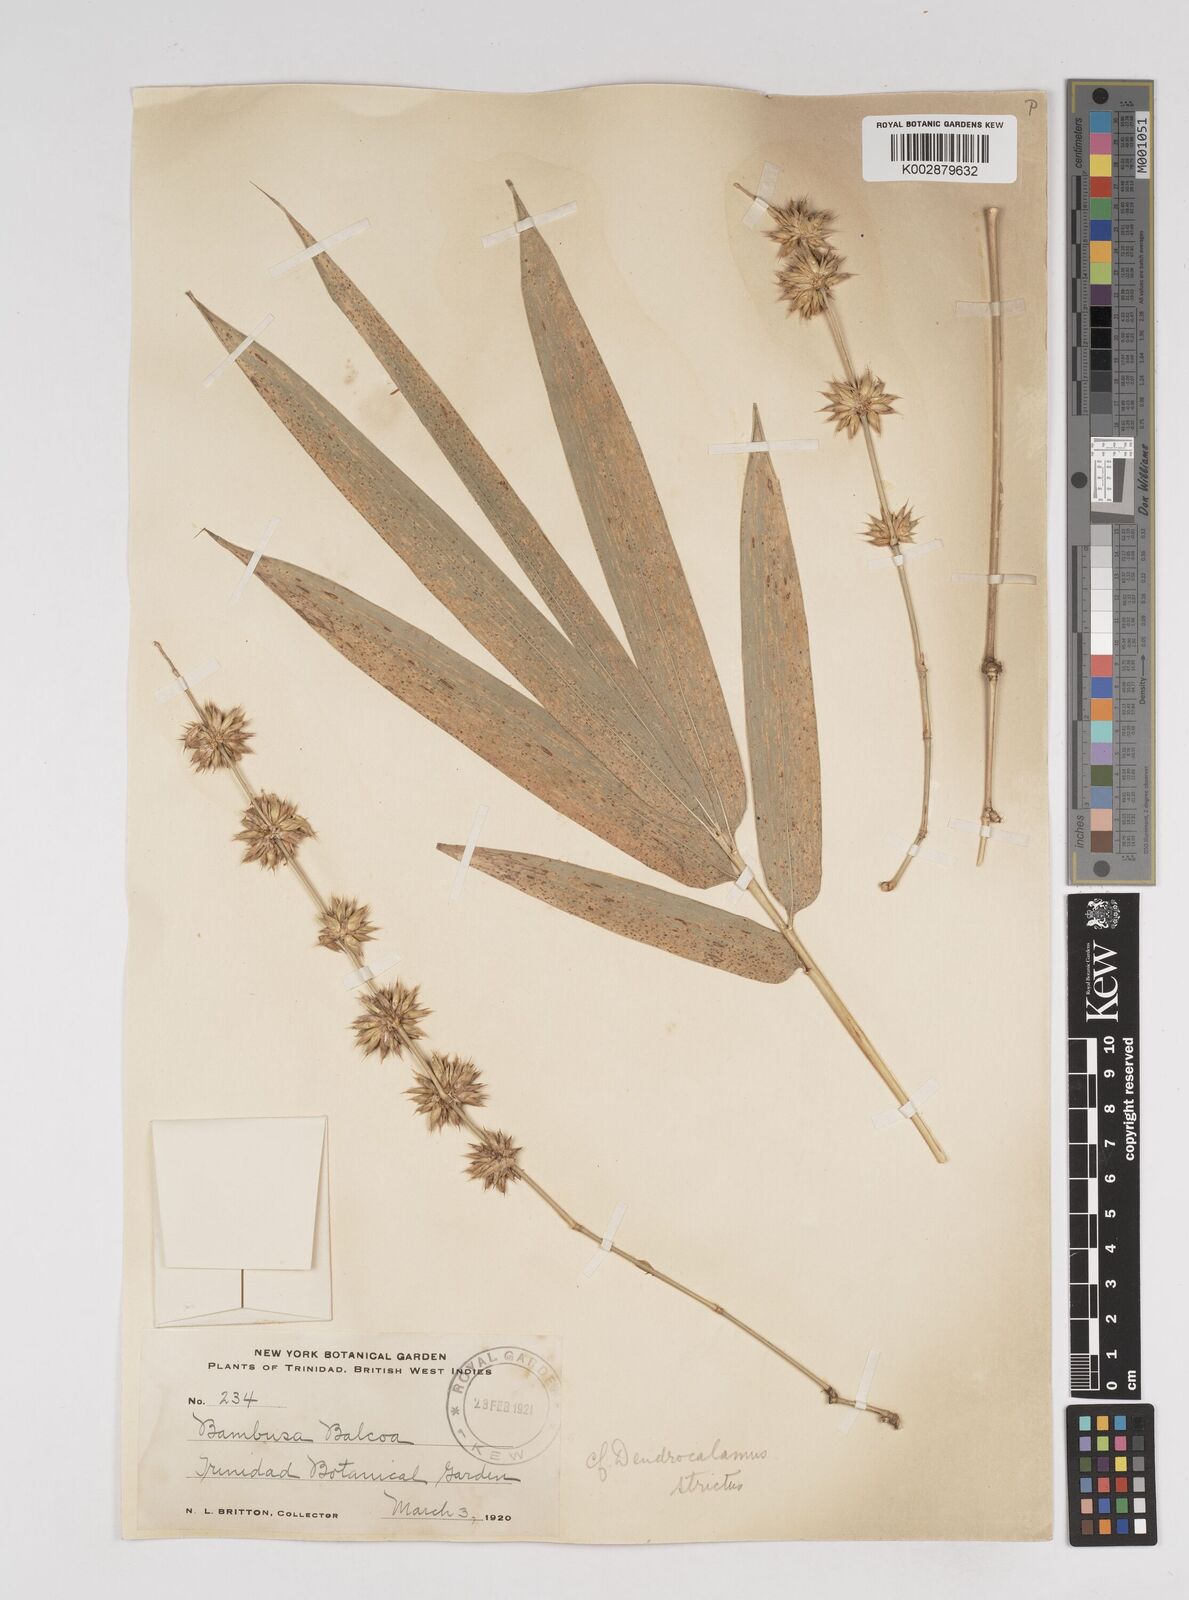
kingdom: Plantae
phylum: Tracheophyta
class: Liliopsida
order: Poales
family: Poaceae
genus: Dendrocalamus
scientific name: Dendrocalamus strictus
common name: Male bamboo
